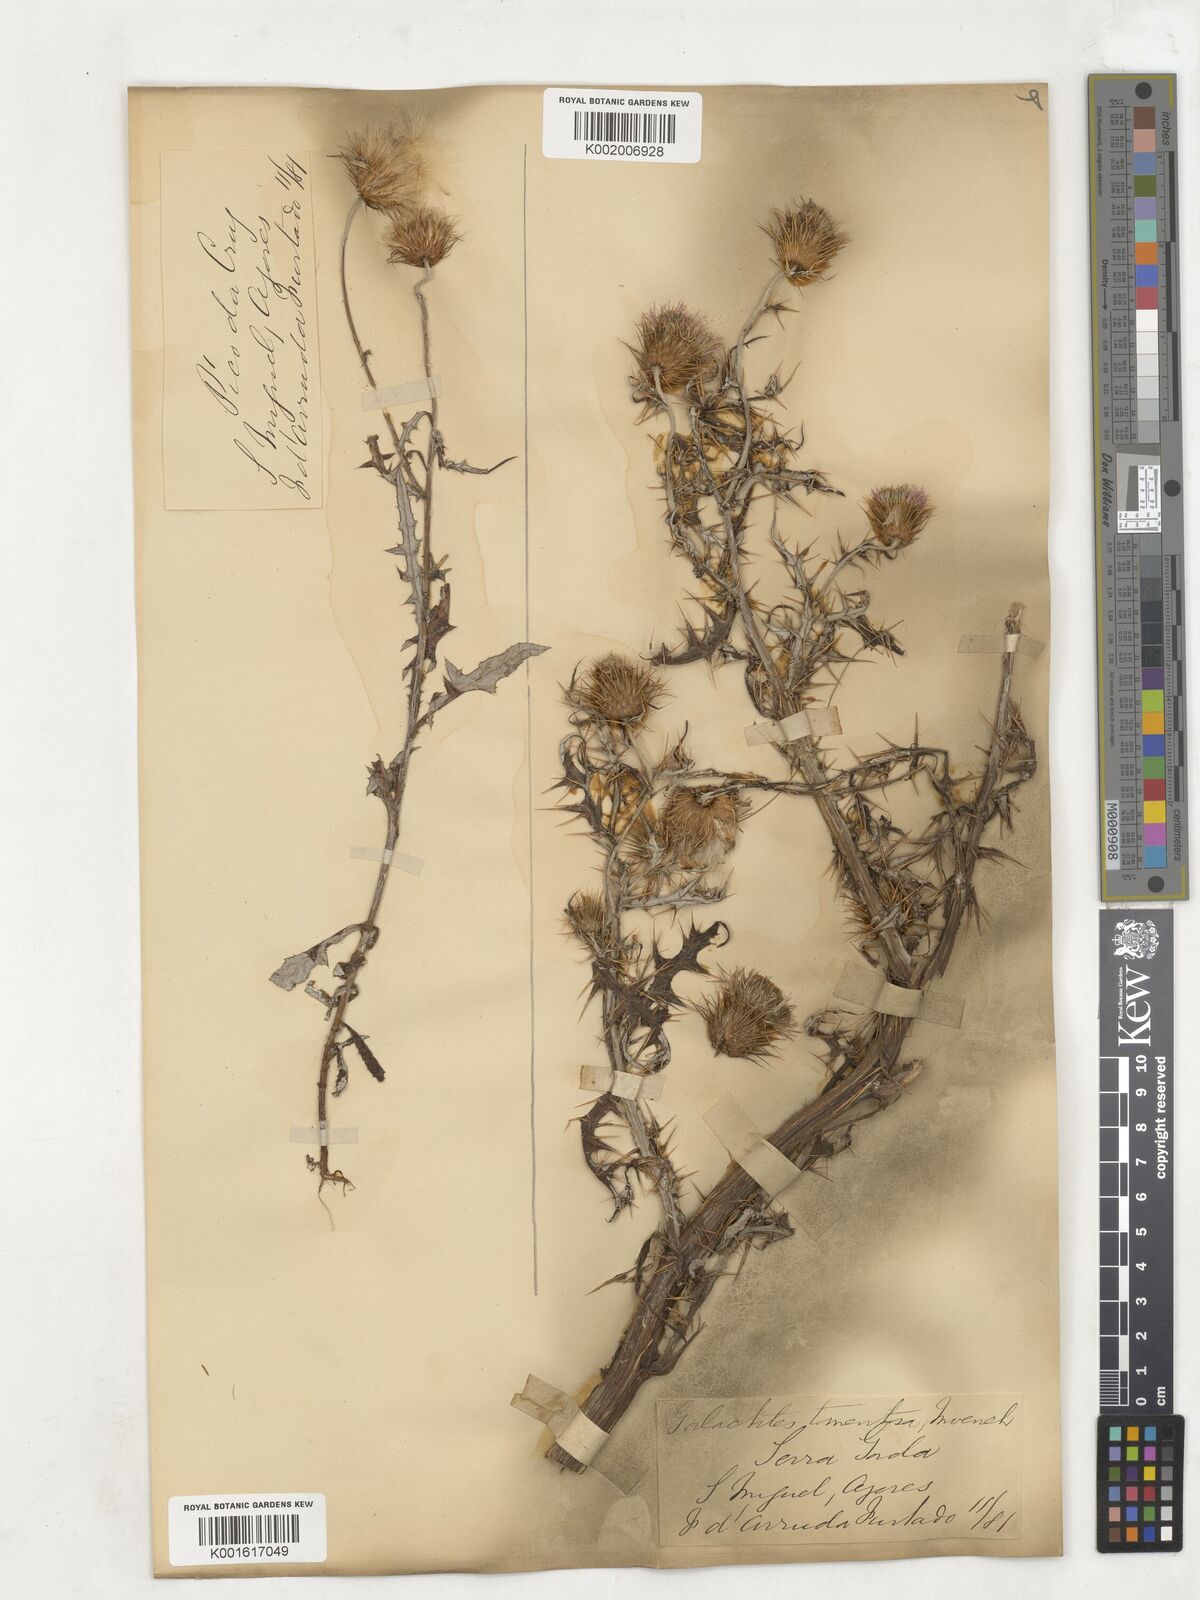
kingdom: Plantae
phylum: Tracheophyta
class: Magnoliopsida
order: Asterales
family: Asteraceae
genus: Galactites
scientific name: Galactites
